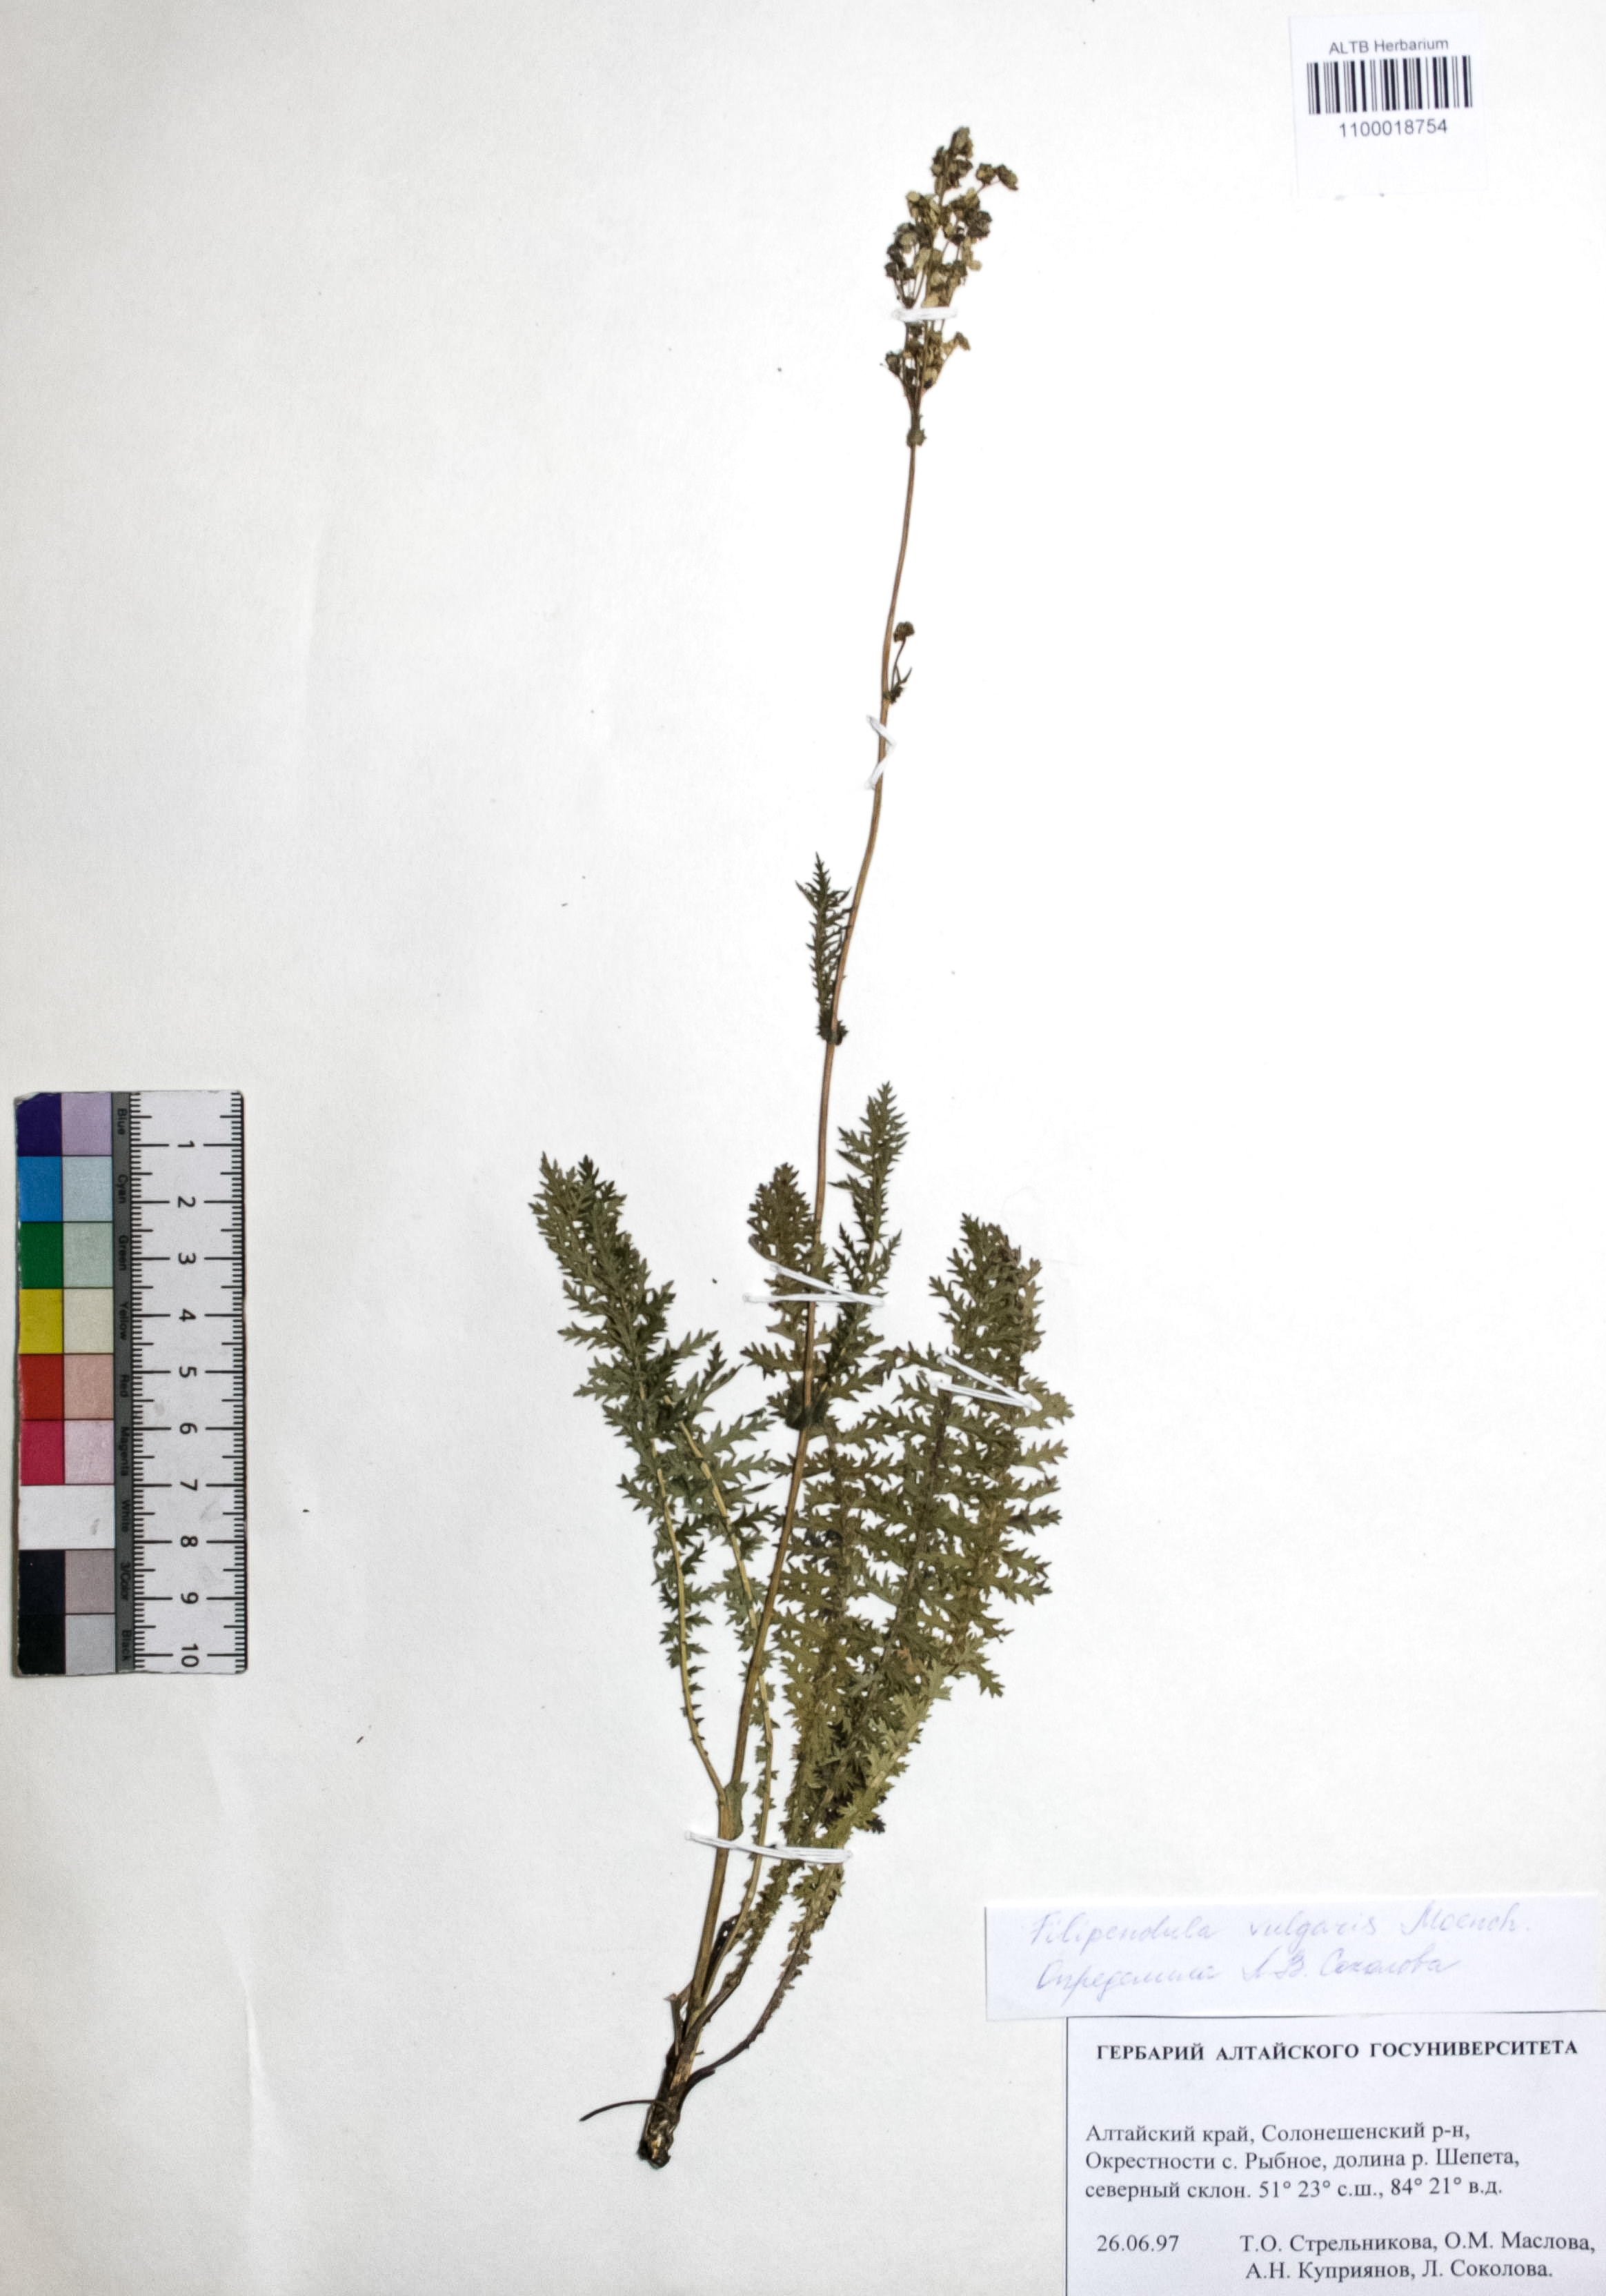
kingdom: Plantae
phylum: Tracheophyta
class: Magnoliopsida
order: Rosales
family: Rosaceae
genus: Filipendula
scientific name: Filipendula vulgaris
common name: Dropwort
